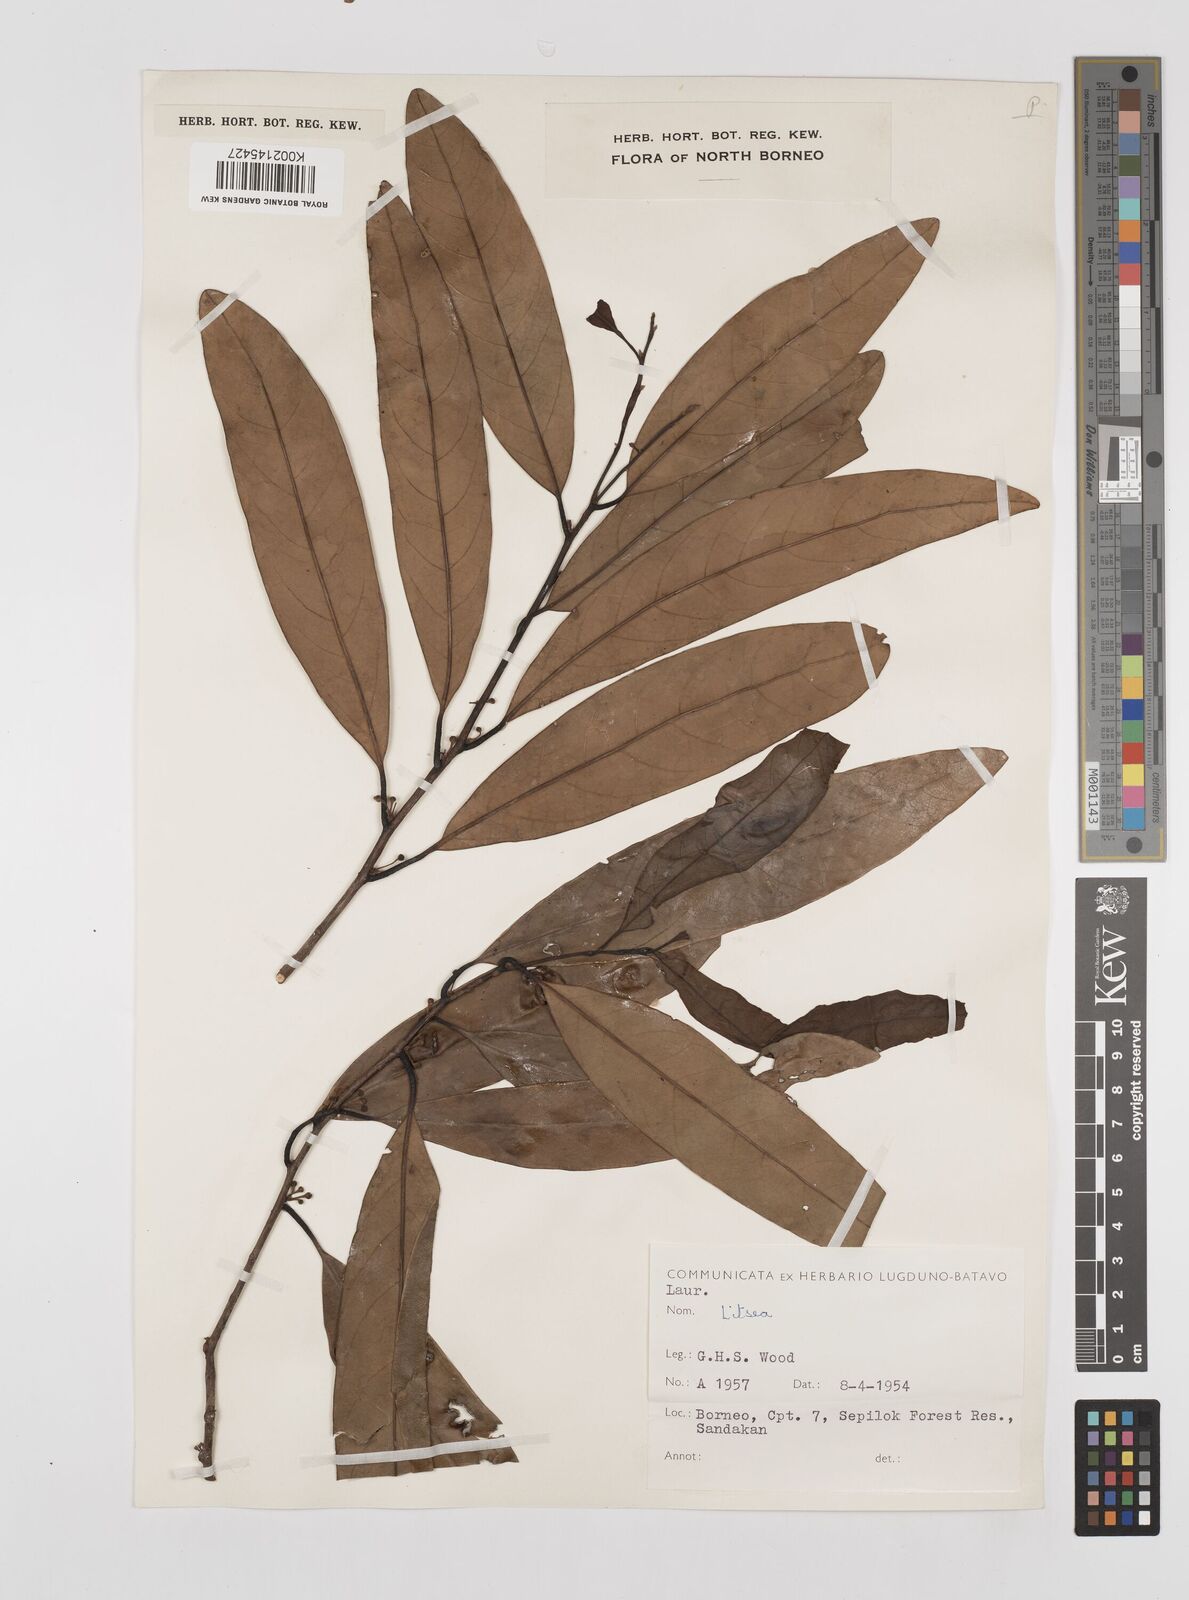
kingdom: Plantae
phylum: Tracheophyta
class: Magnoliopsida
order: Laurales
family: Lauraceae
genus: Litsea
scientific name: Litsea
